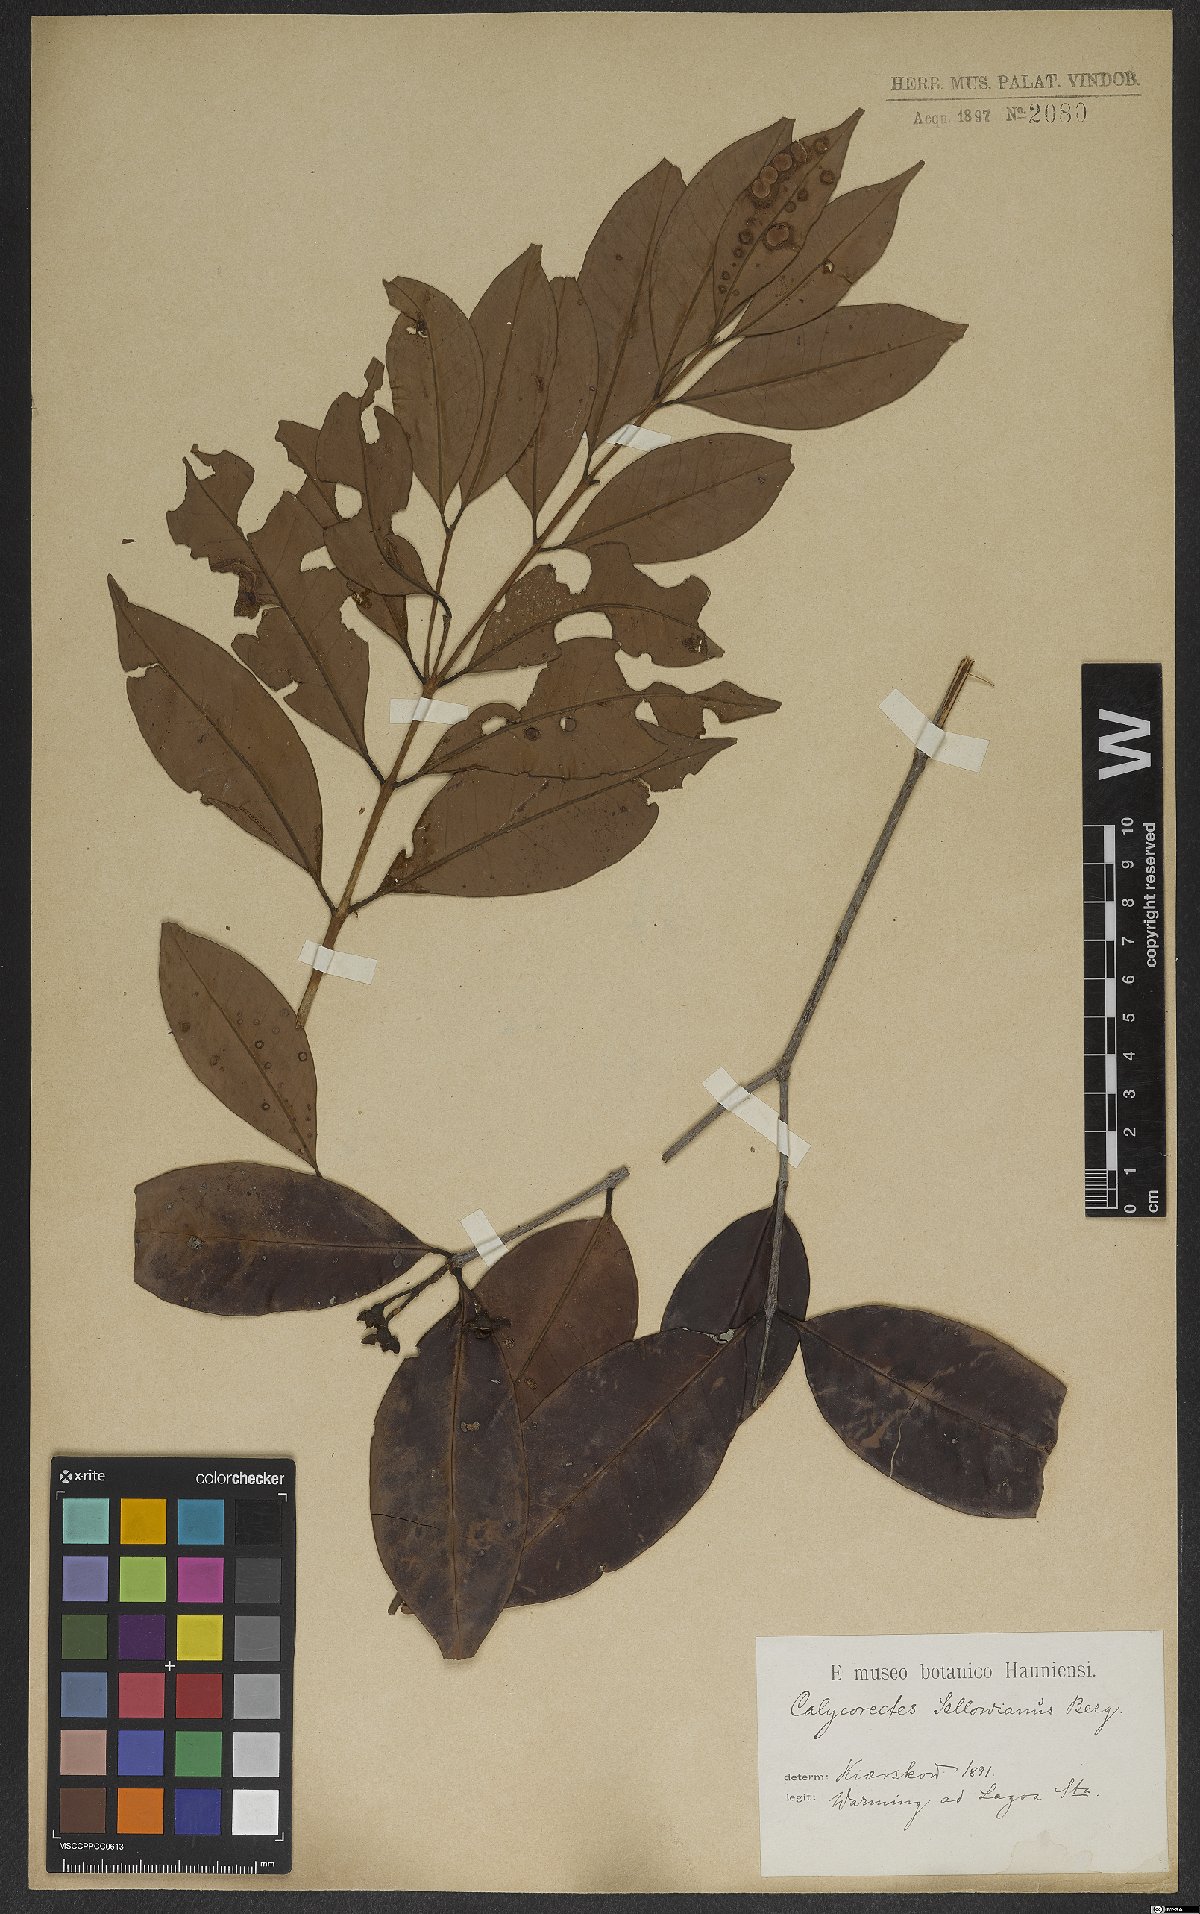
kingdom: Plantae
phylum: Tracheophyta
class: Magnoliopsida
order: Myrtales
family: Myrtaceae
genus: Calycorectes
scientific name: Calycorectes acutatus
